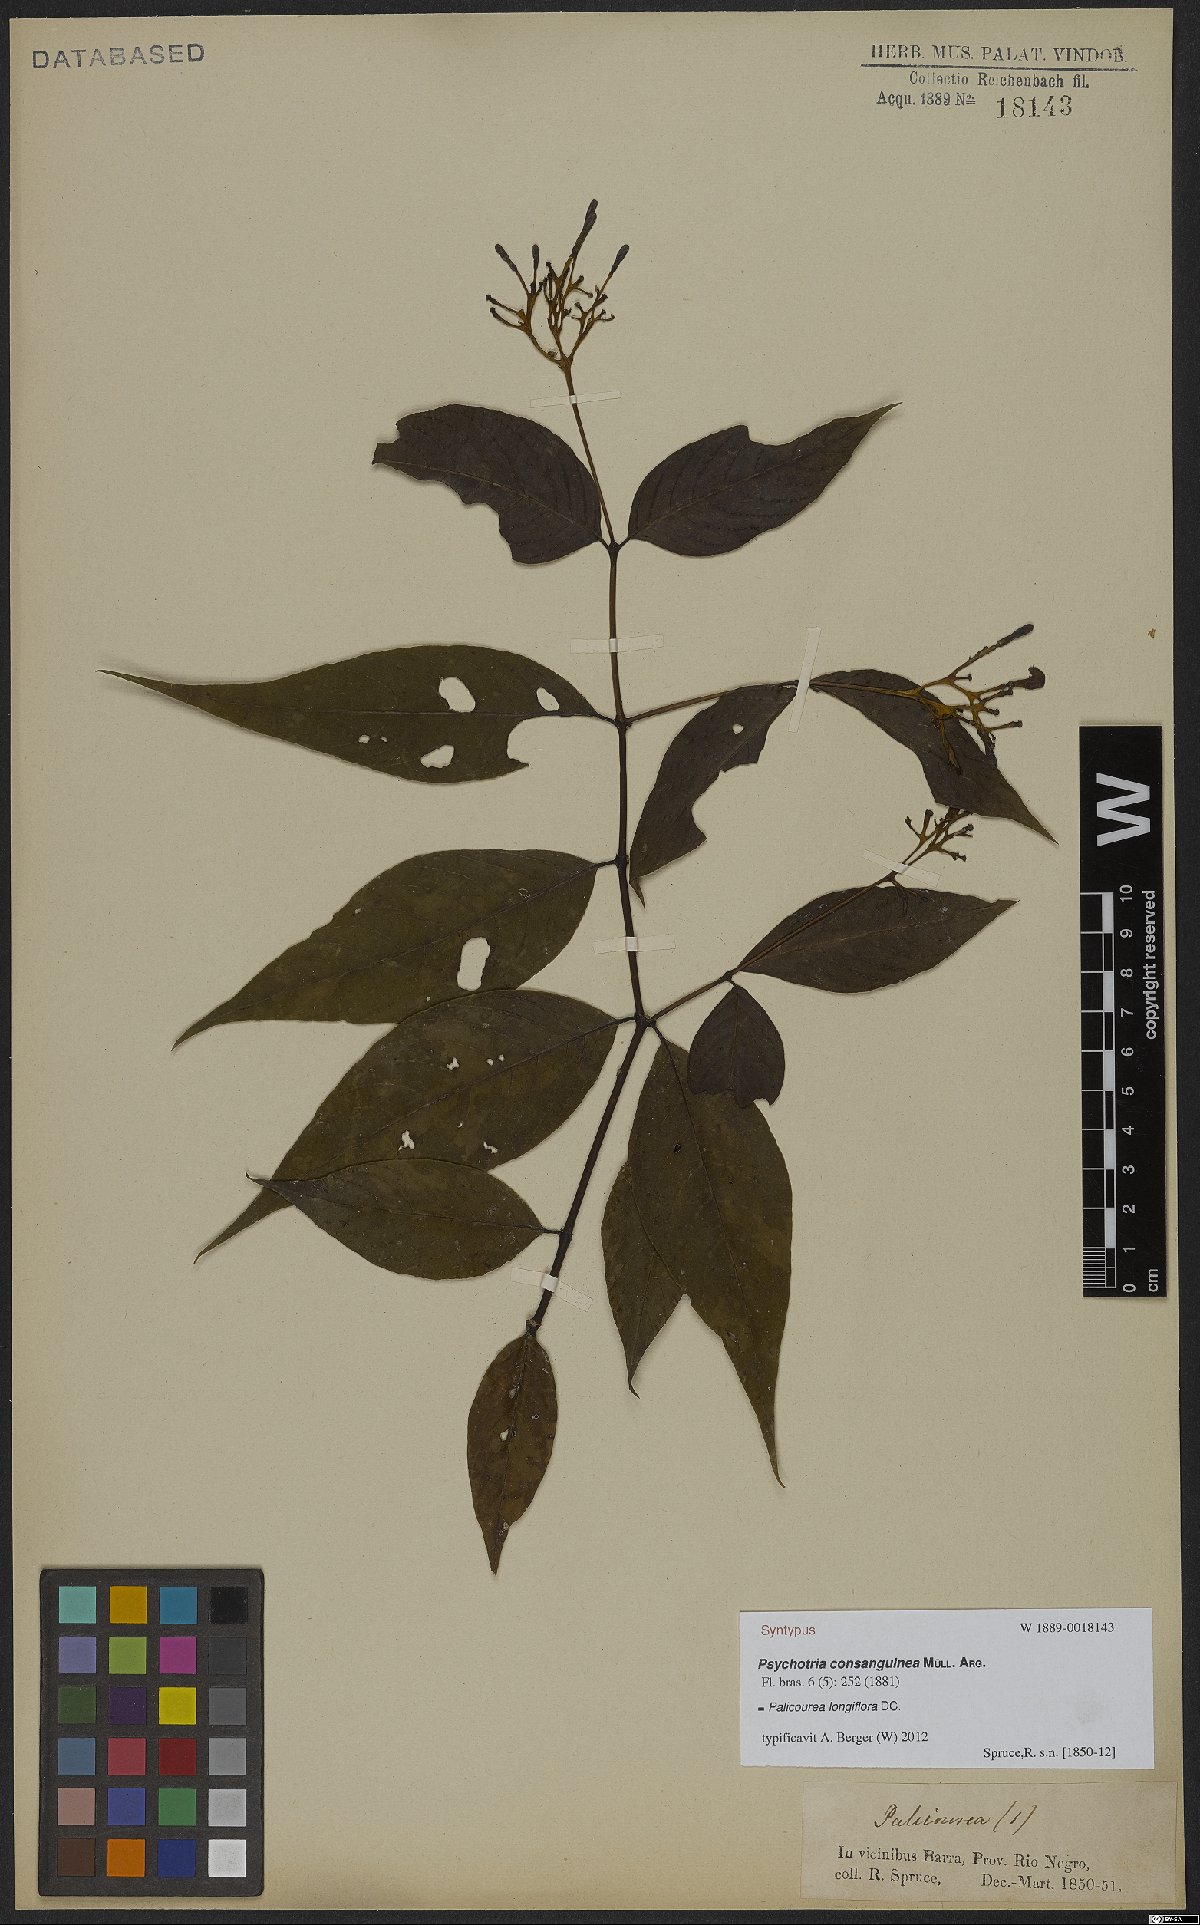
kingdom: Plantae
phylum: Tracheophyta
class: Magnoliopsida
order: Gentianales
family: Rubiaceae
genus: Palicourea
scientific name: Palicourea longiflora
